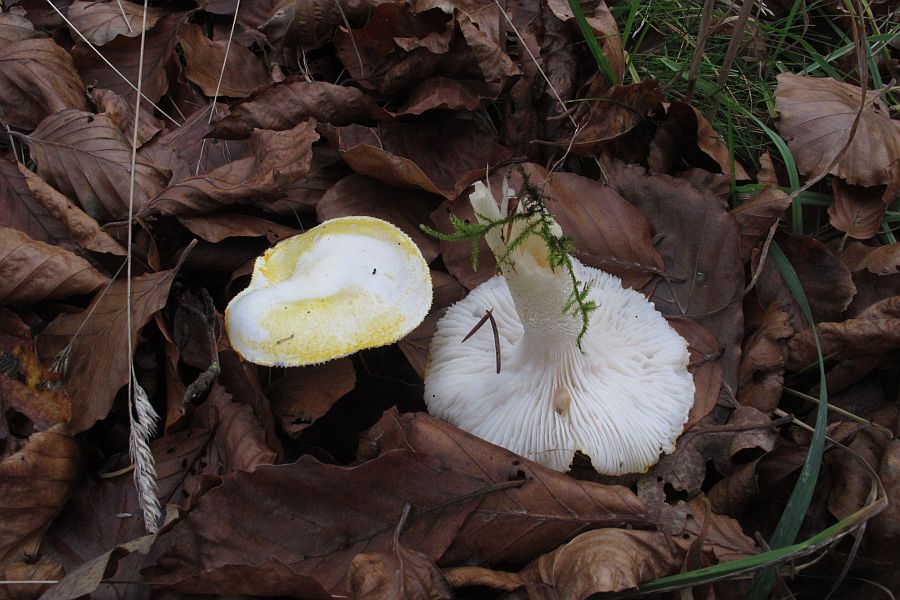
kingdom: Fungi
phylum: Basidiomycota
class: Agaricomycetes
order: Agaricales
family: Hygrophoraceae
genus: Hygrophorus
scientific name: Hygrophorus chrysodon
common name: gulfnugget sneglehat
